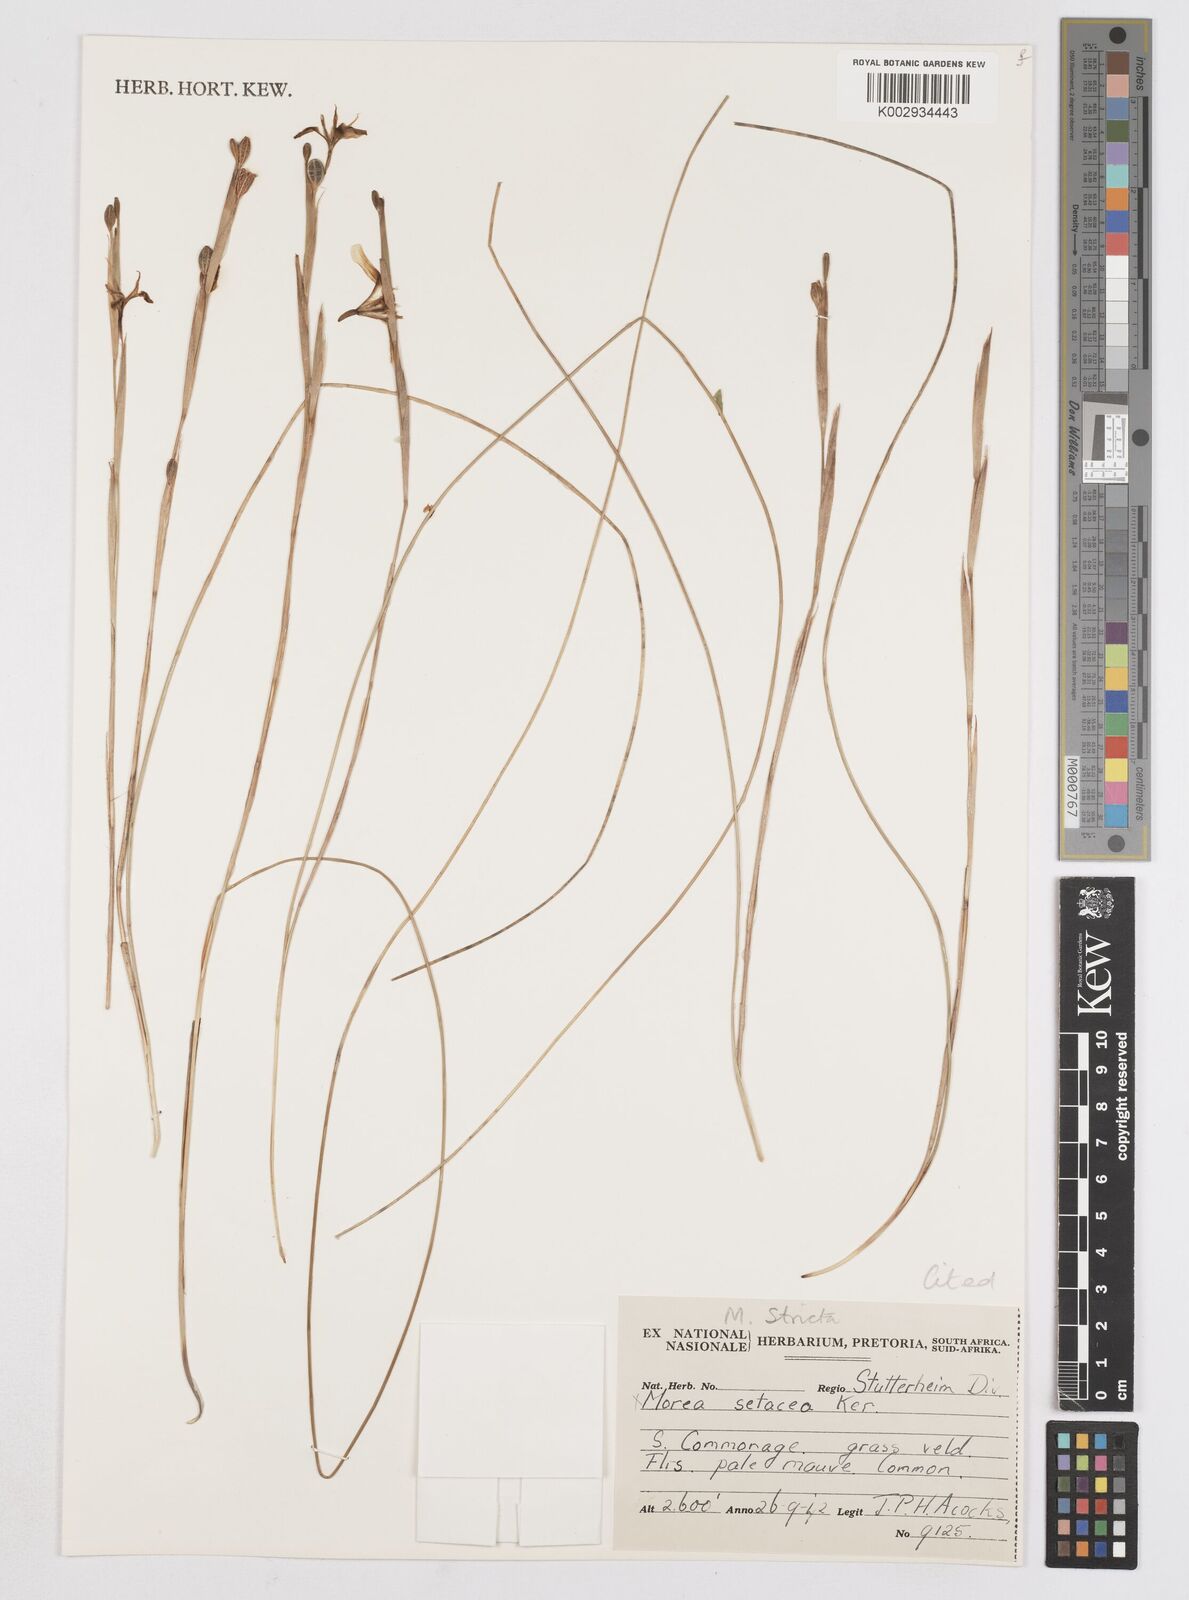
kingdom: Plantae
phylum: Tracheophyta
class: Liliopsida
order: Asparagales
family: Iridaceae
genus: Moraea
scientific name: Moraea stricta
